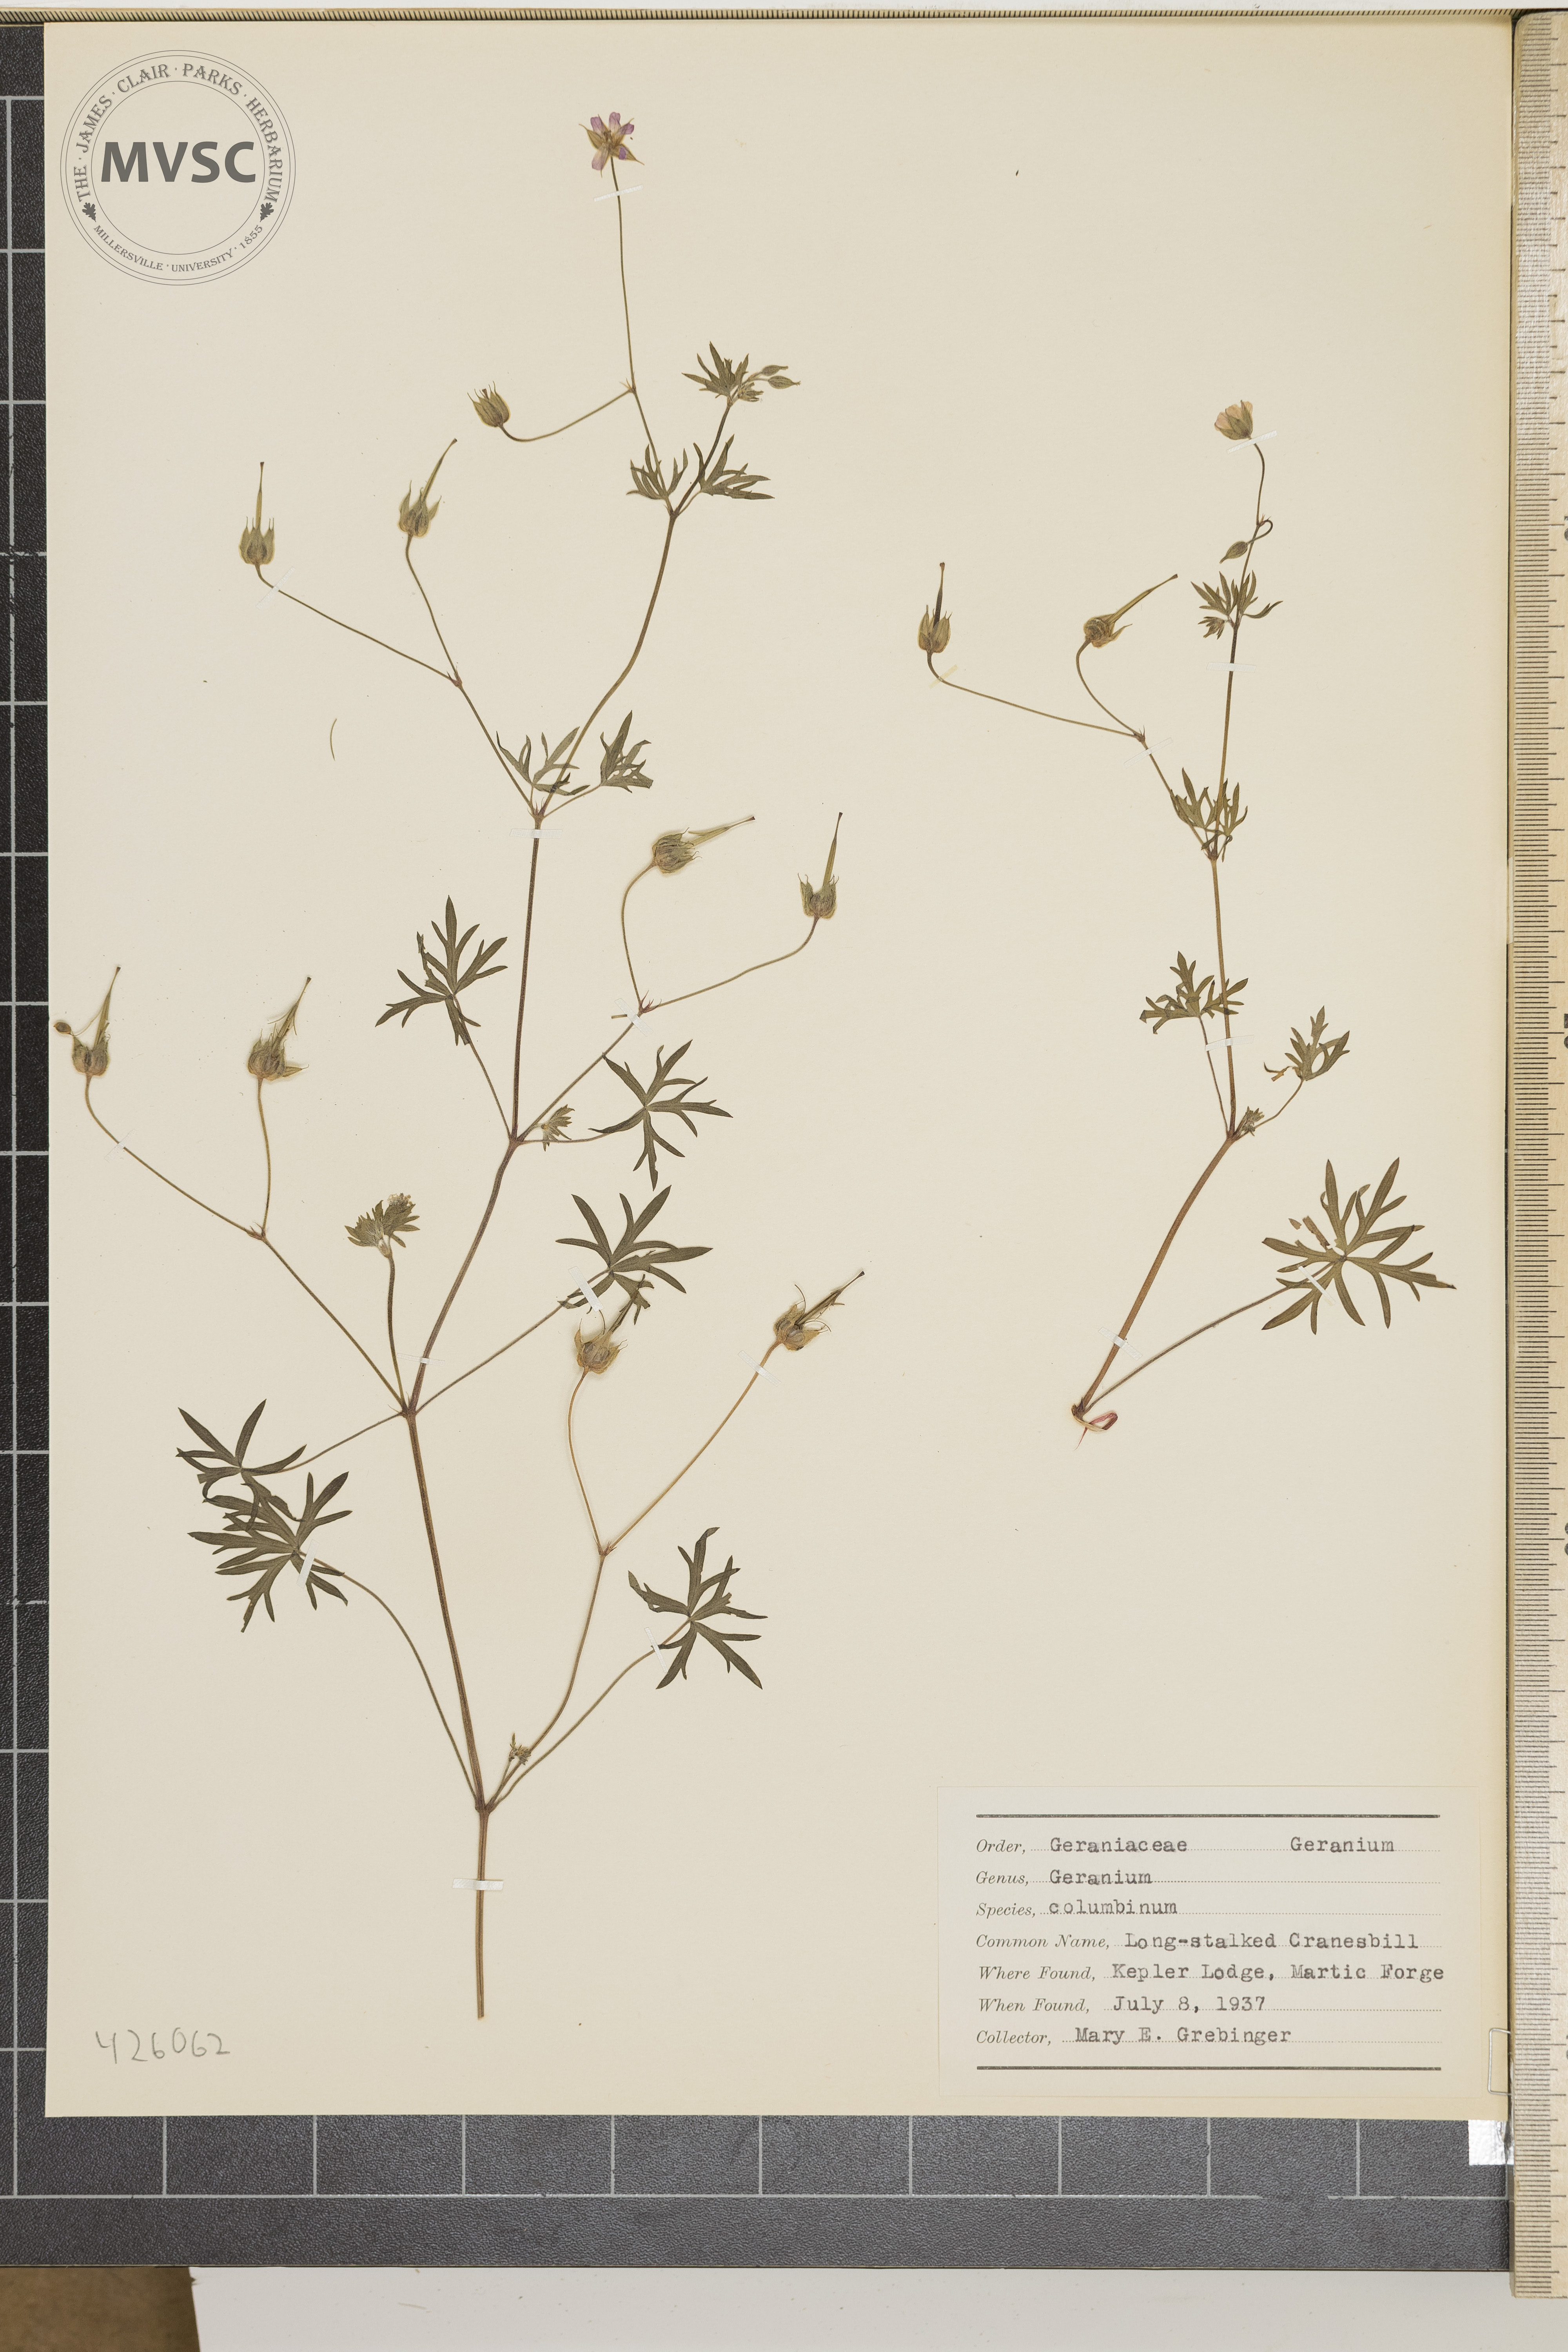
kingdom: Plantae
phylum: Tracheophyta
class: Magnoliopsida
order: Geraniales
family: Geraniaceae
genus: Geranium
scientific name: Geranium columbinum
